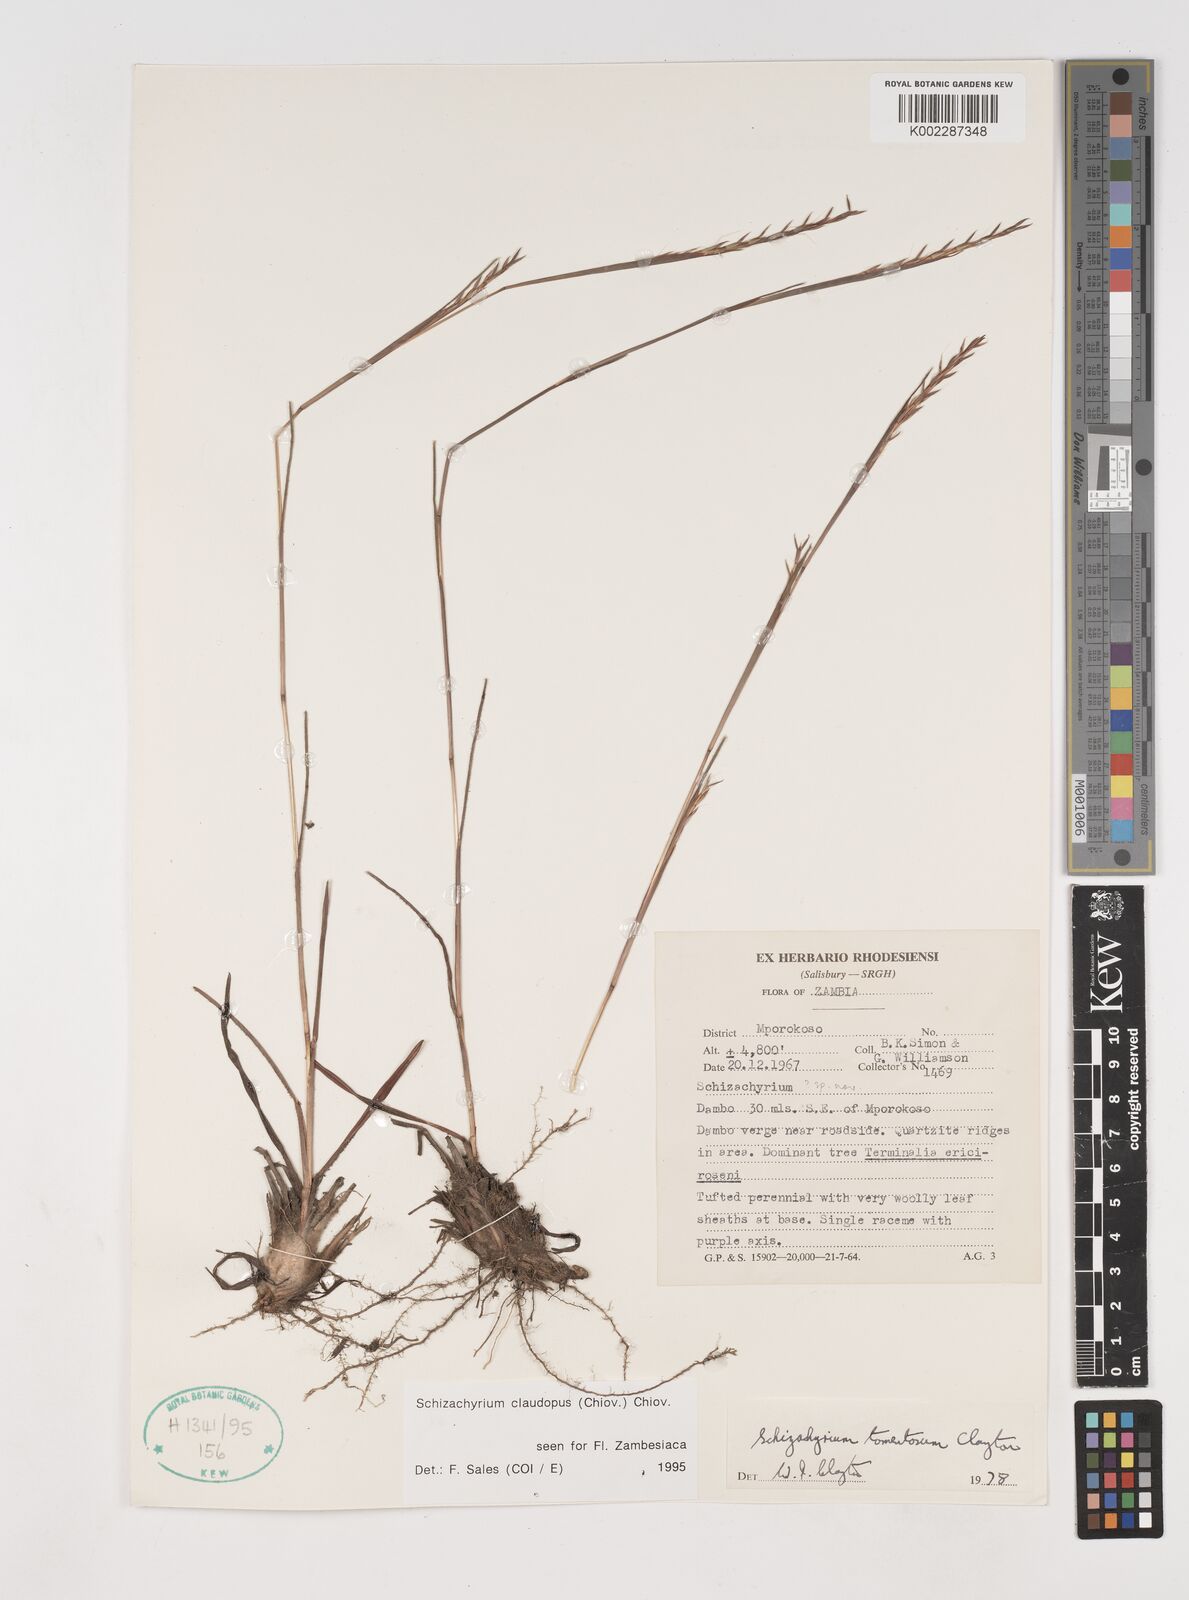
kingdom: Plantae
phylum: Tracheophyta
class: Liliopsida
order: Poales
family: Poaceae
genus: Schizachyrium
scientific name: Schizachyrium claudopus
